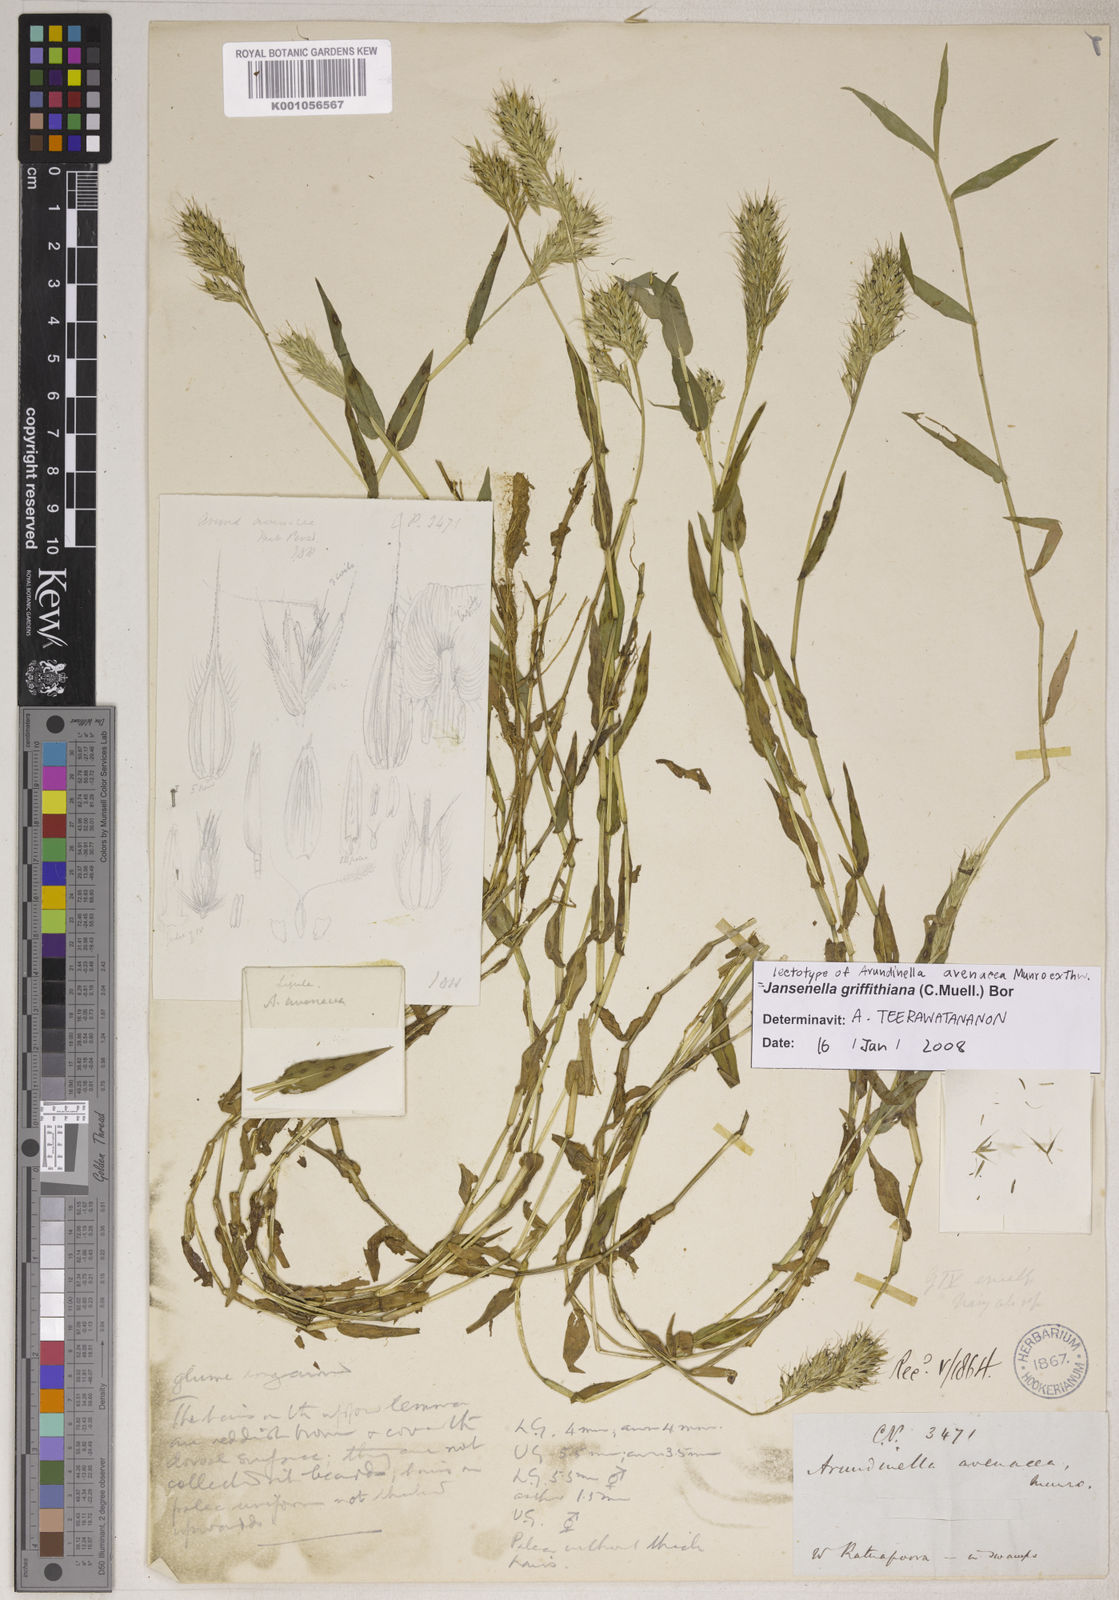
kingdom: Plantae
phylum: Tracheophyta
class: Liliopsida
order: Poales
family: Poaceae
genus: Jansenella
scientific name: Jansenella griffithiana
